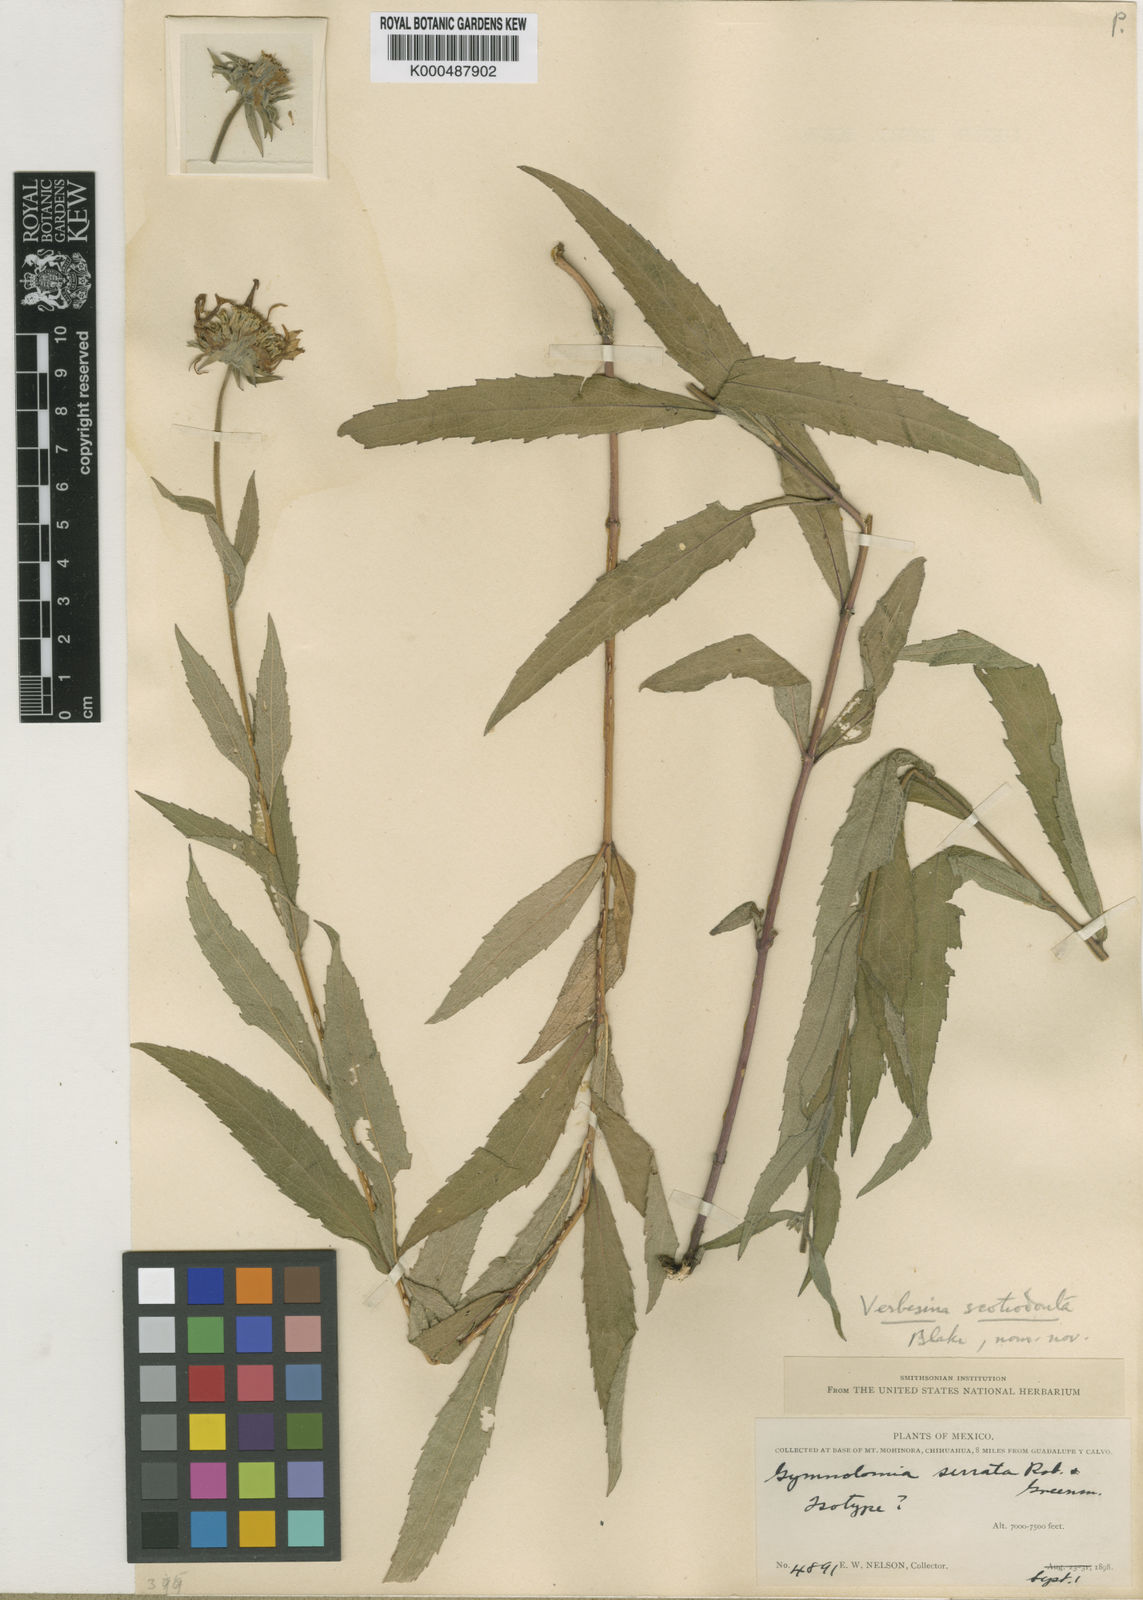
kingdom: Plantae
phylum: Tracheophyta
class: Magnoliopsida
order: Asterales
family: Asteraceae
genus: Verbesina
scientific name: Verbesina scotiodonta
